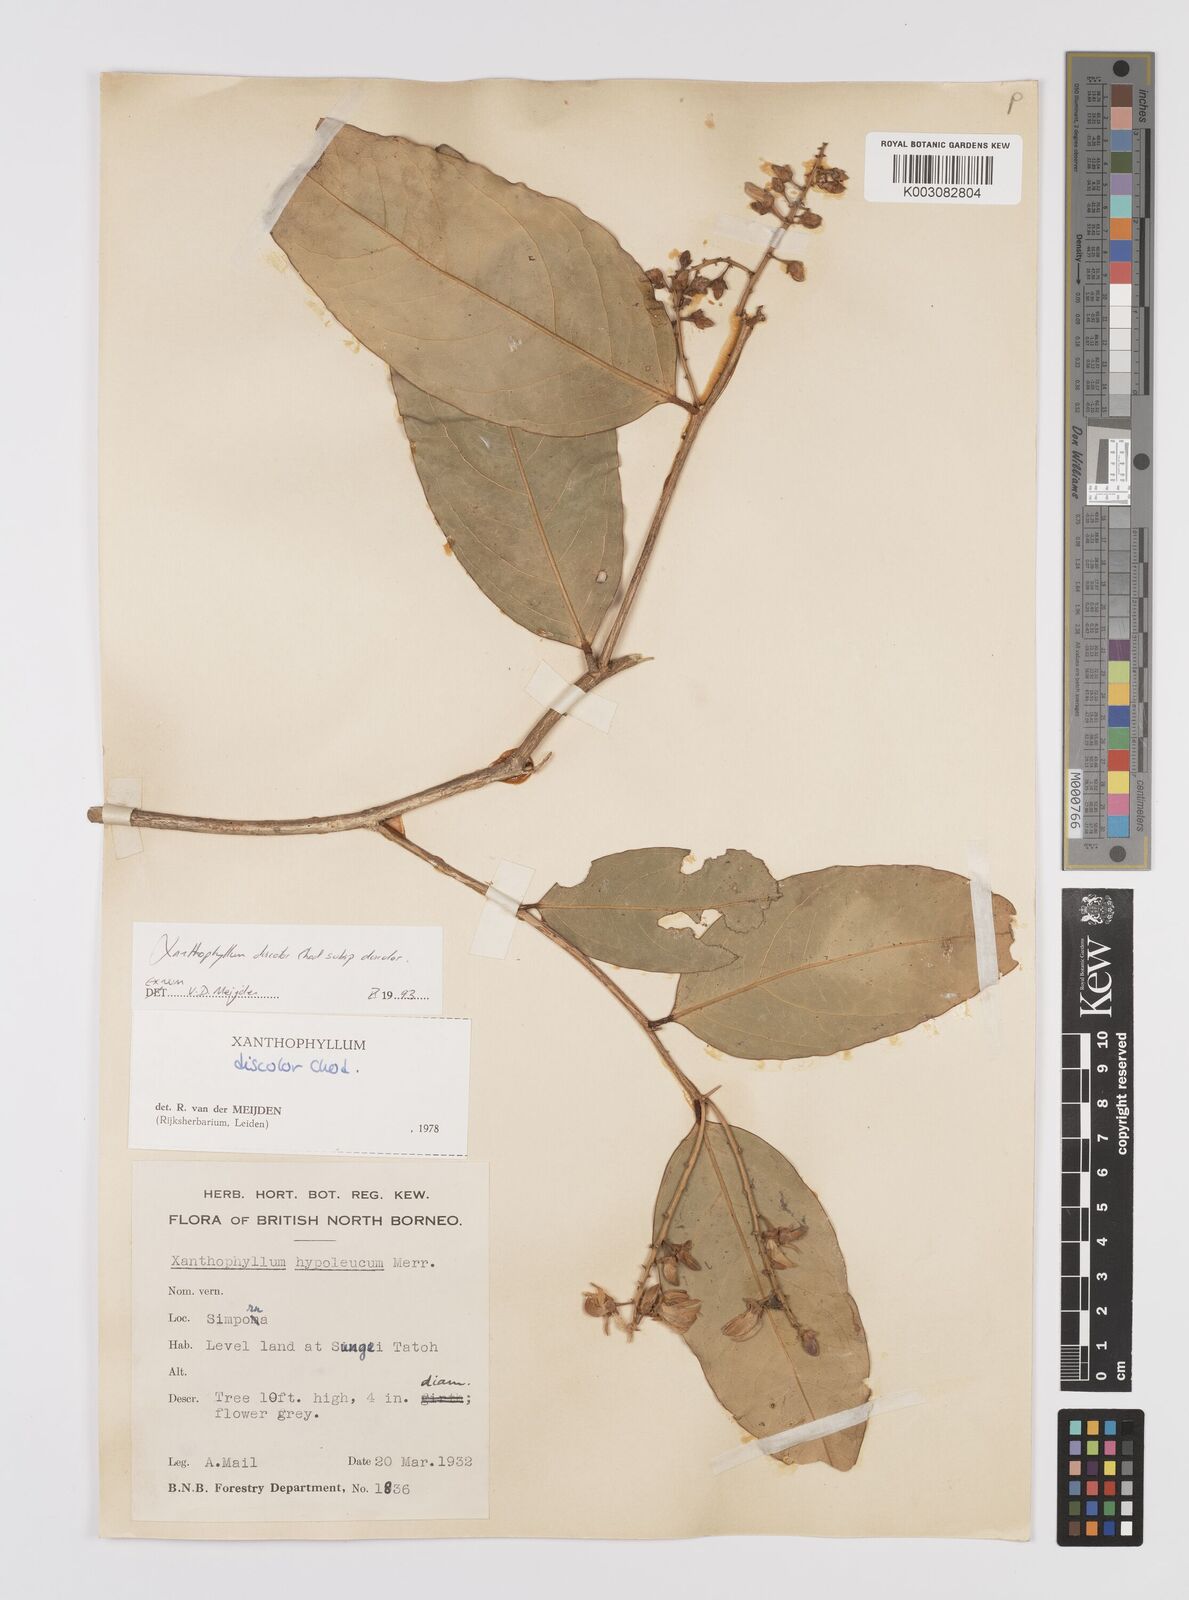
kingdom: Plantae
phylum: Tracheophyta
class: Magnoliopsida
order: Fabales
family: Polygalaceae
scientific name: Polygalaceae
